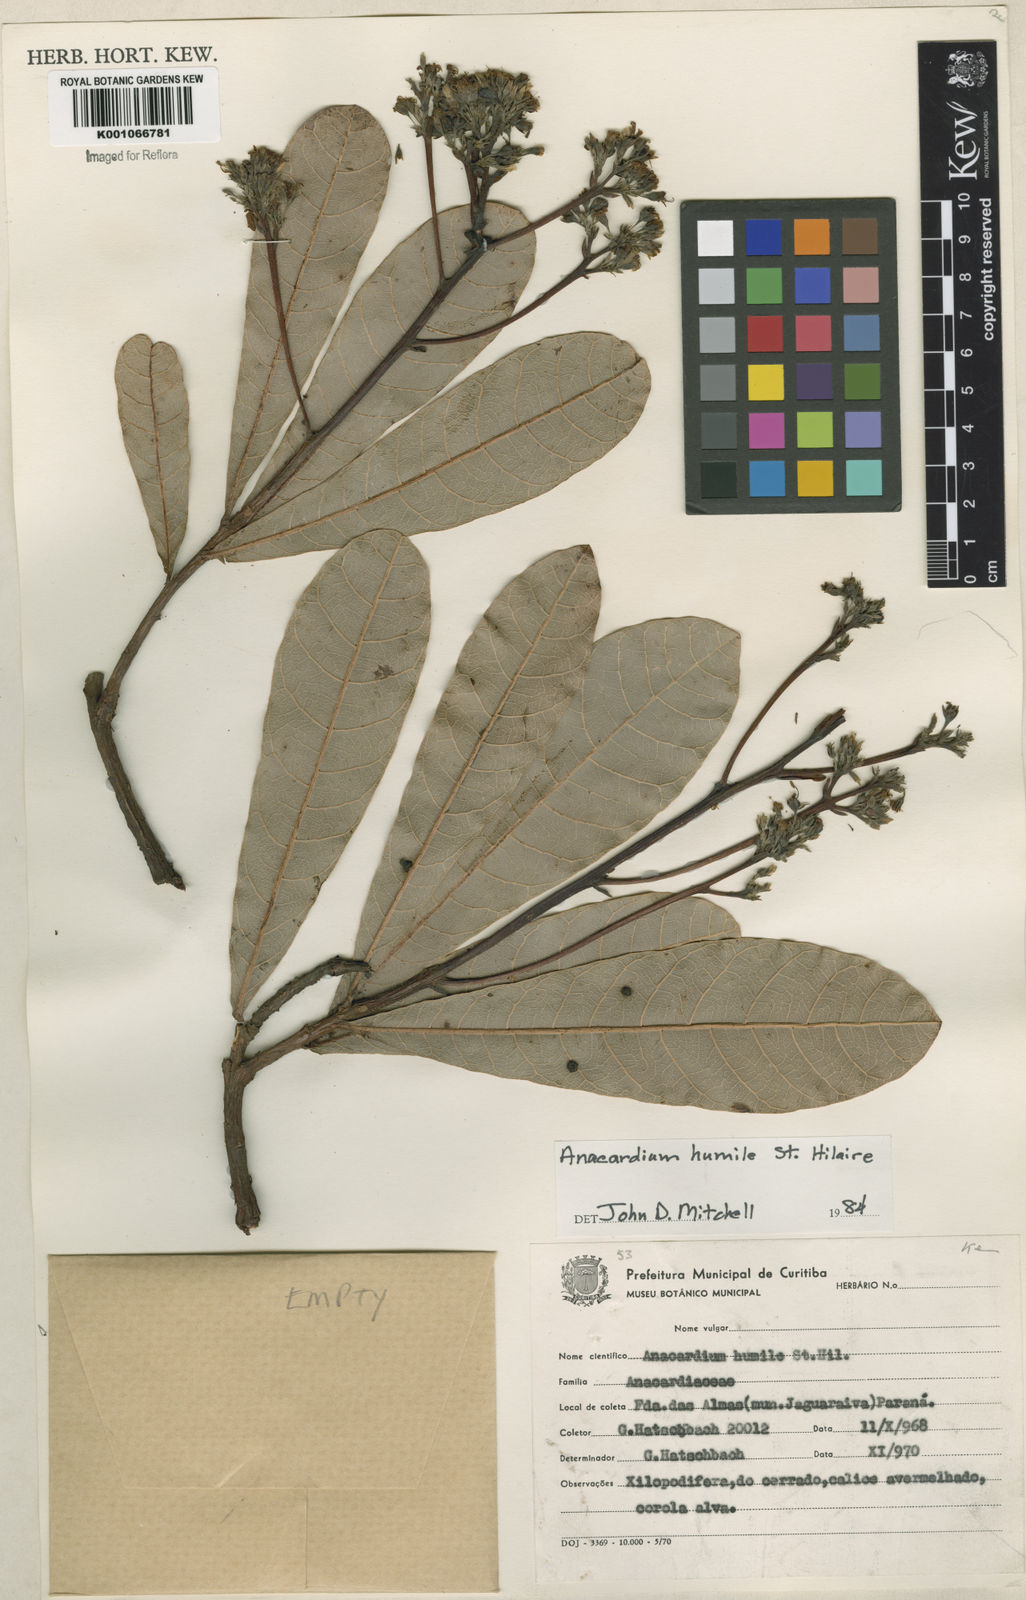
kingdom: Plantae
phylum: Tracheophyta
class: Magnoliopsida
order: Sapindales
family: Anacardiaceae
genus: Anacardium
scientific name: Anacardium humile
